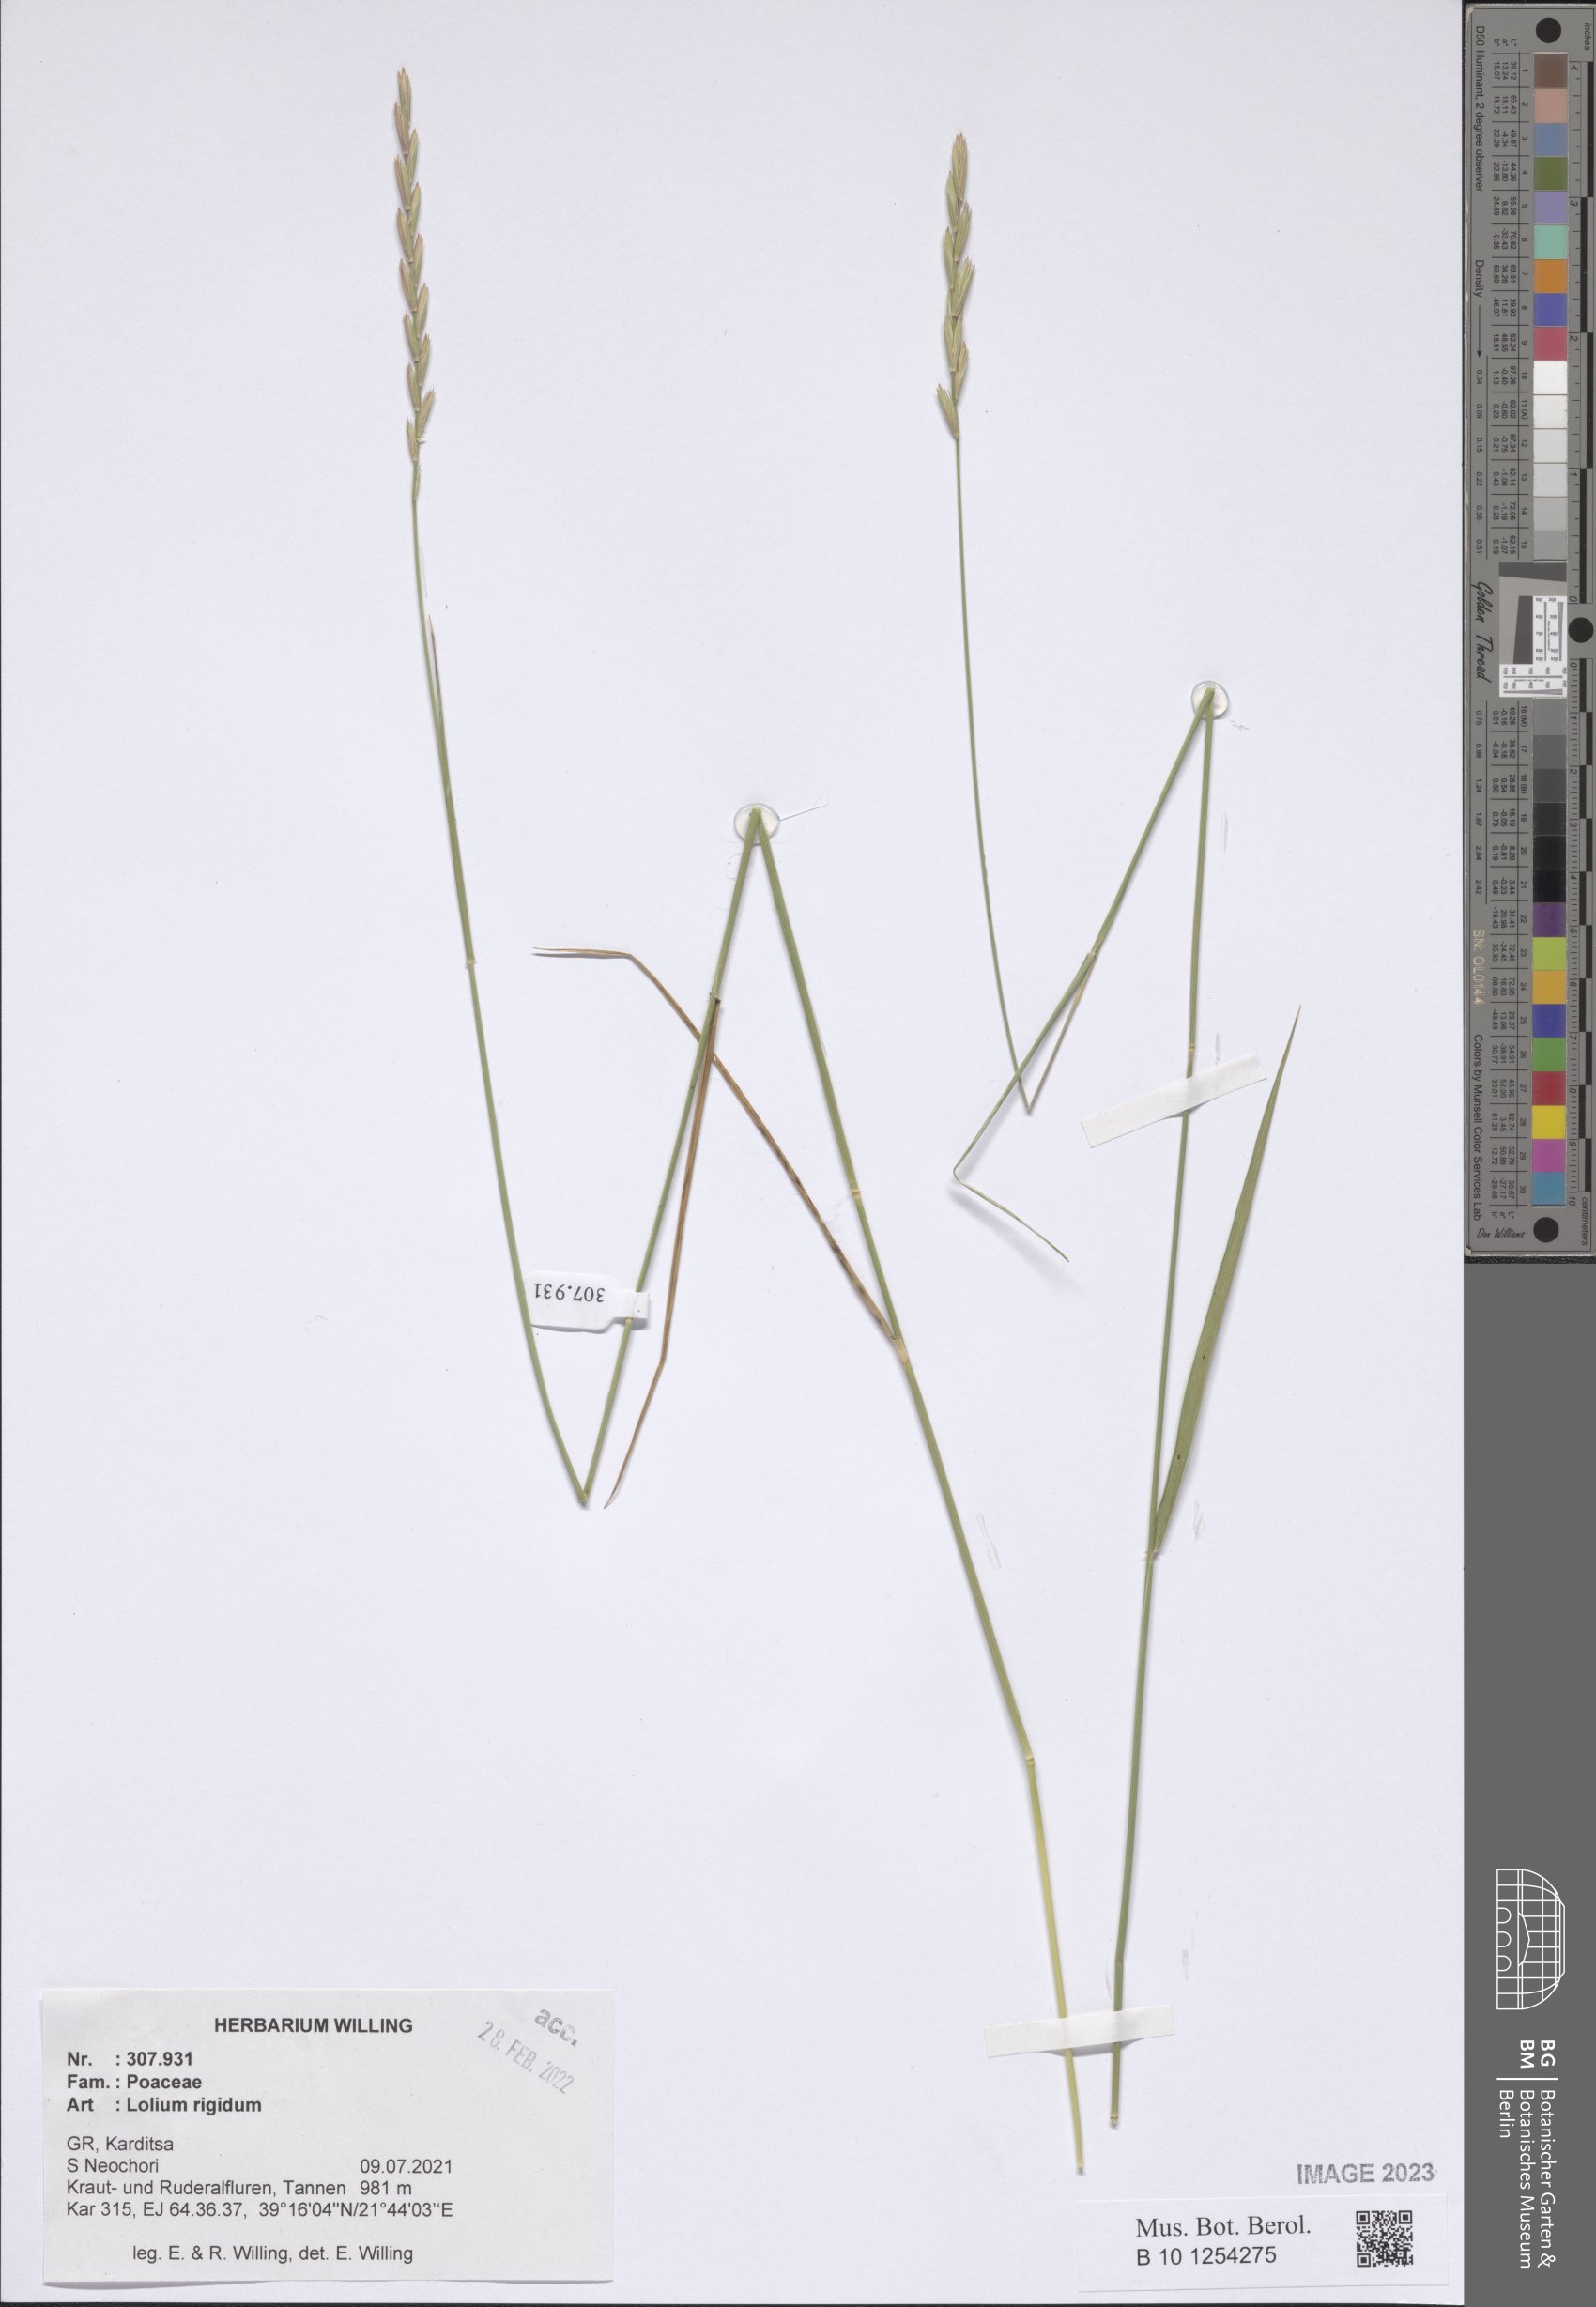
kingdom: Plantae
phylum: Tracheophyta
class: Liliopsida
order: Poales
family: Poaceae
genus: Lolium
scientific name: Lolium rigidum
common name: Wimmera ryegrass
